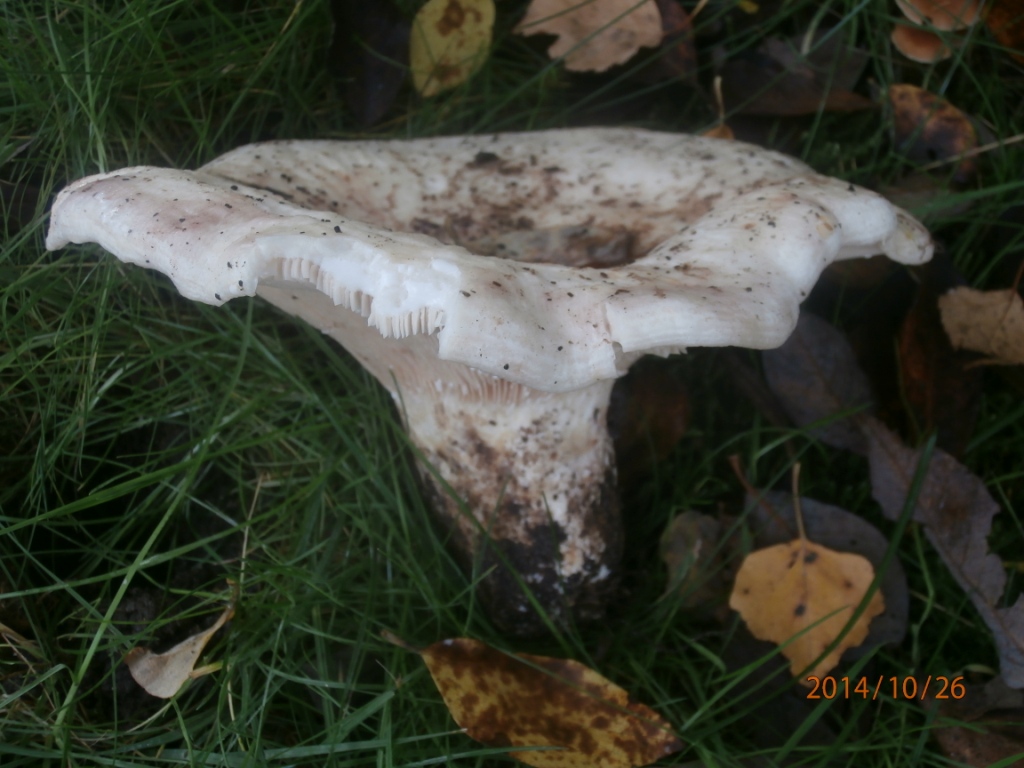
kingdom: Fungi
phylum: Basidiomycota
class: Agaricomycetes
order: Russulales
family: Russulaceae
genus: Lactarius
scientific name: Lactarius controversus
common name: rosabladet mælkehat
